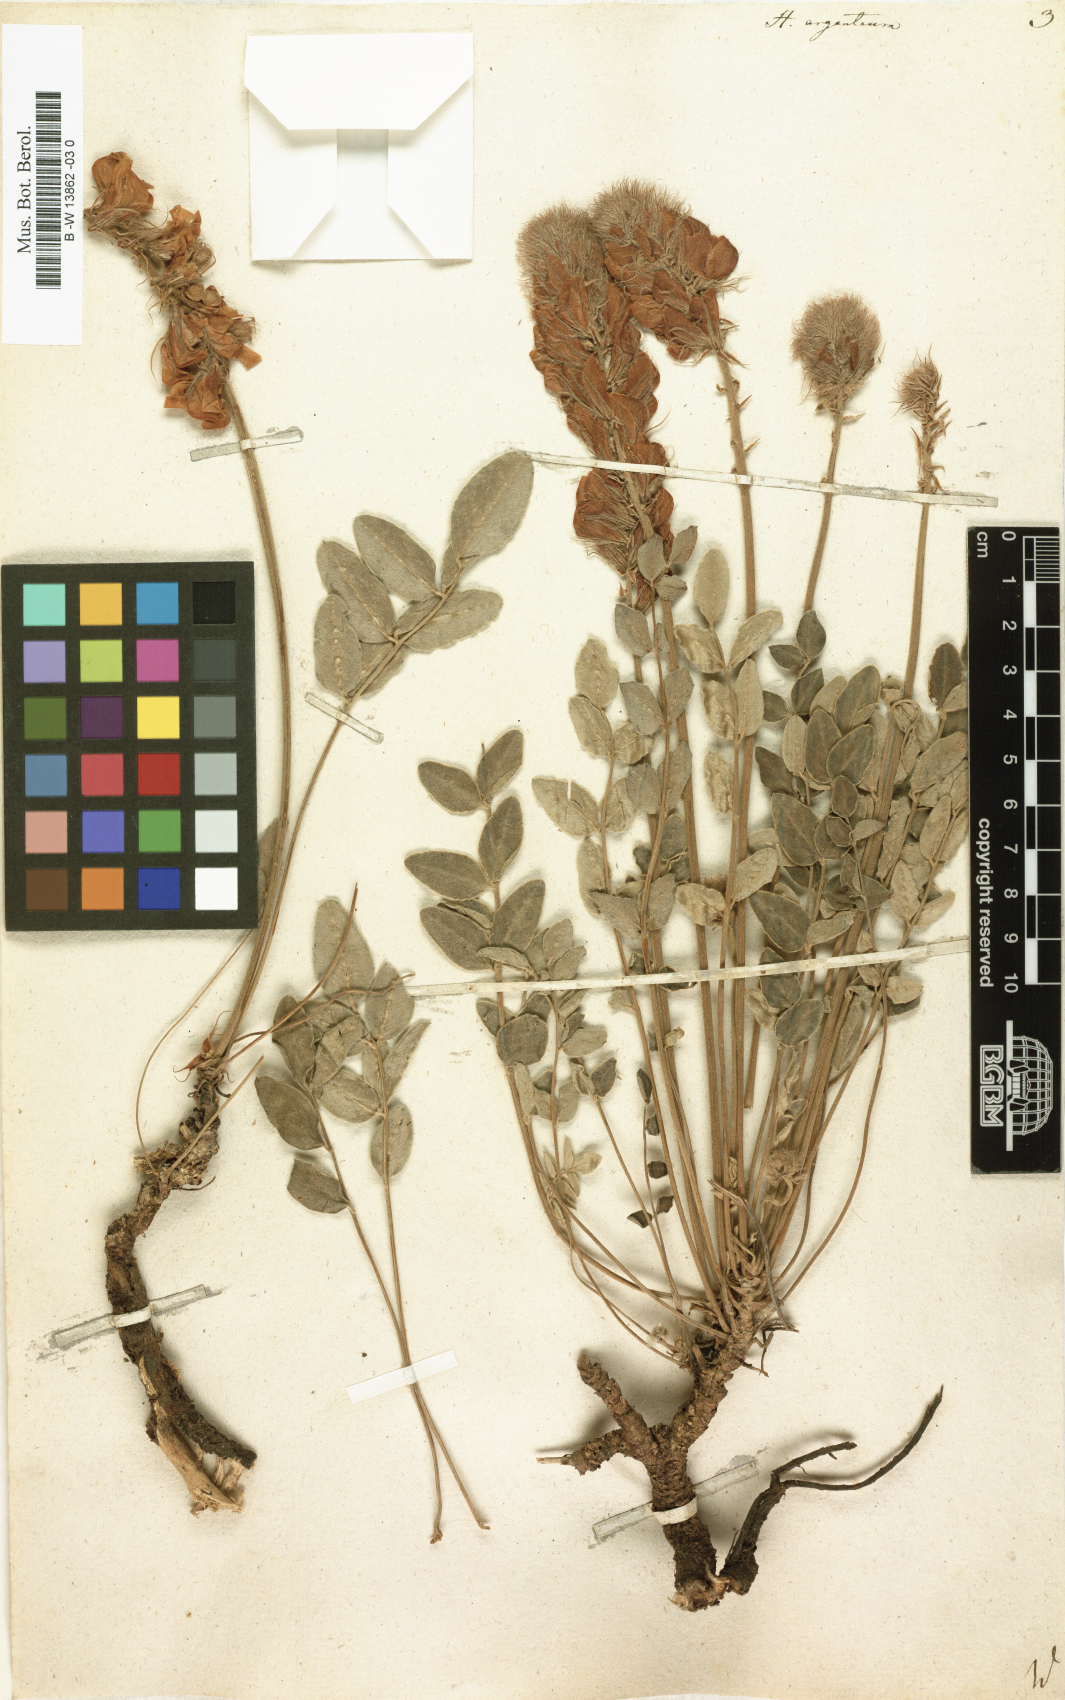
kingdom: Plantae
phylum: Tracheophyta
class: Magnoliopsida
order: Fabales
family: Fabaceae
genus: Hedysarum
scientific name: Hedysarum grandiflorum
